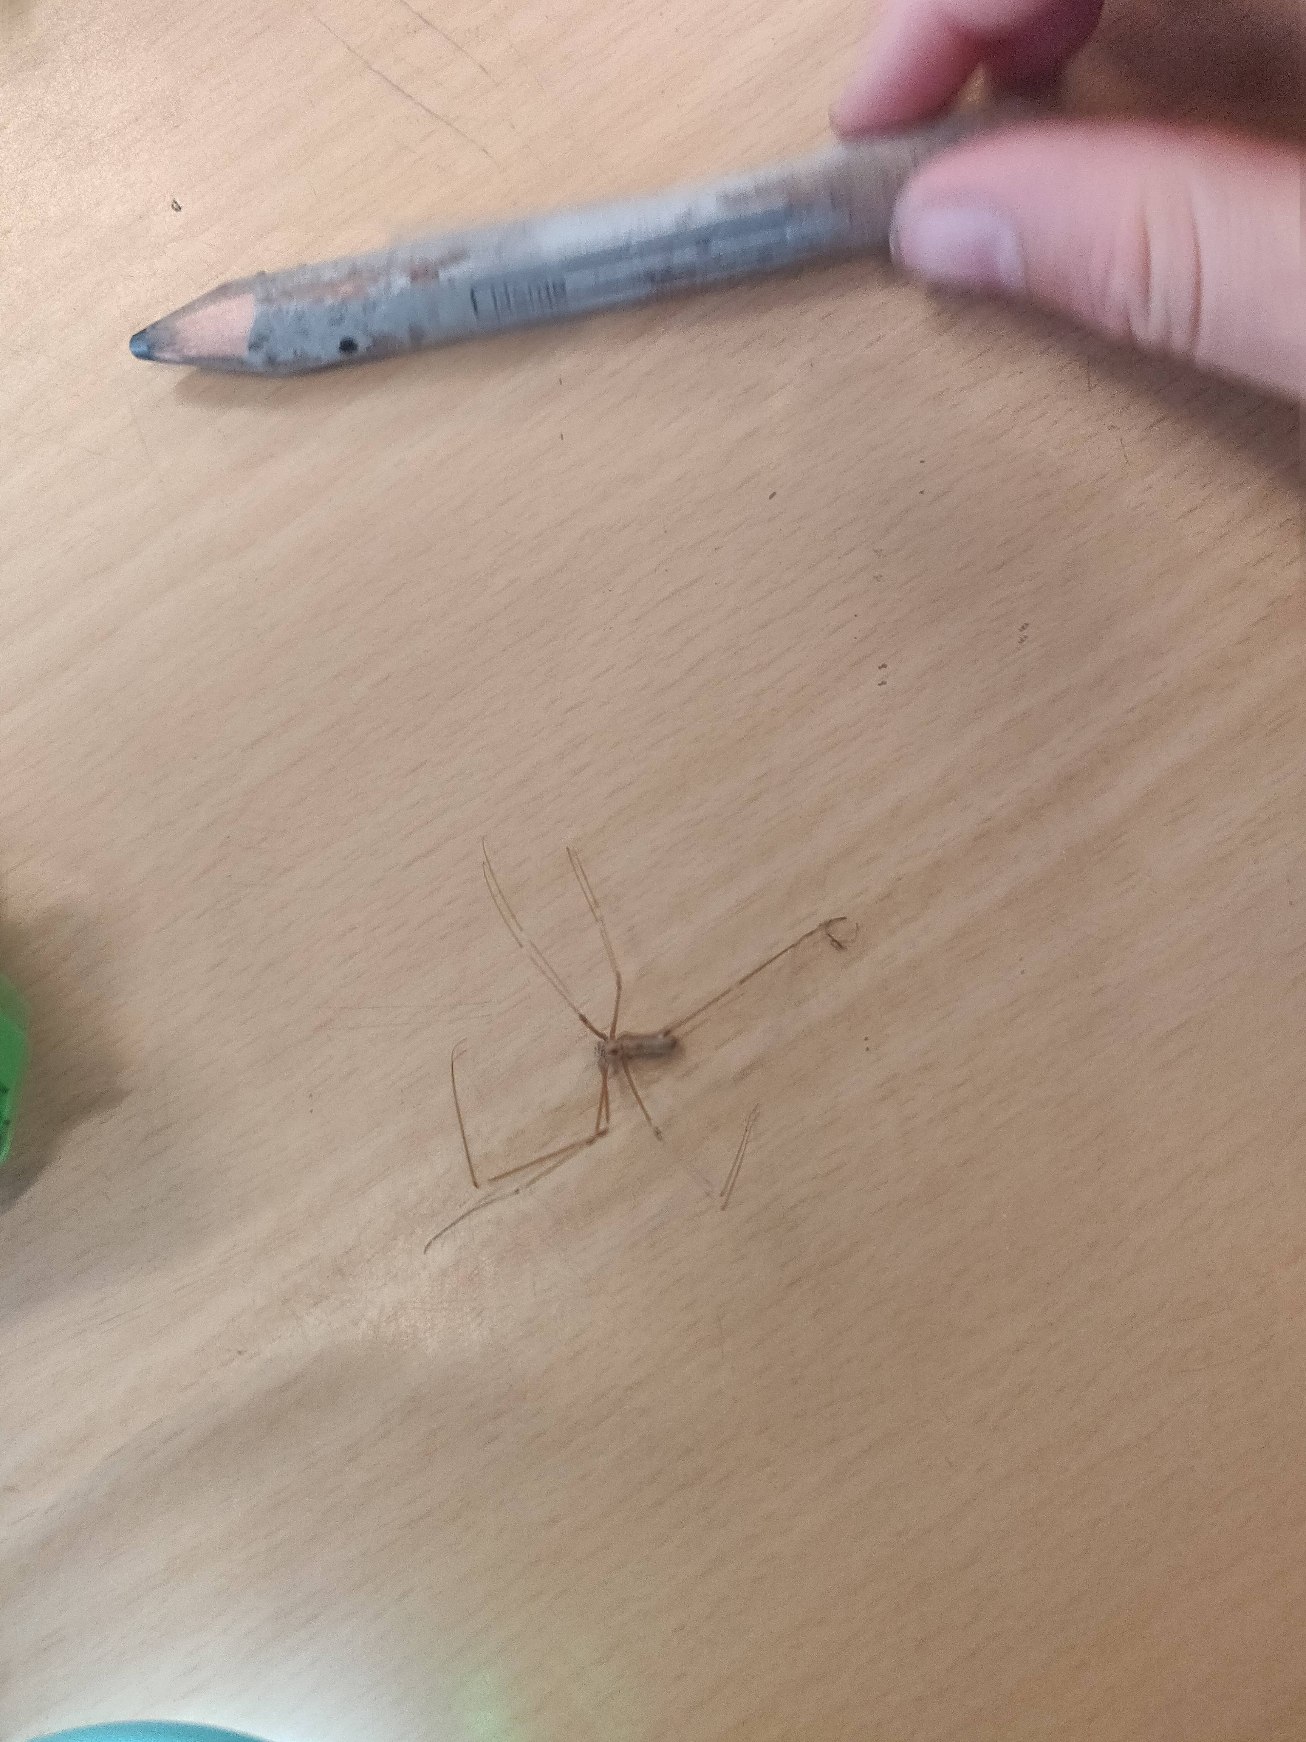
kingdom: Animalia
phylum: Arthropoda
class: Arachnida
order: Araneae
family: Pholcidae
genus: Pholcus
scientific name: Pholcus phalangioides
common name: Mejeredderkop
